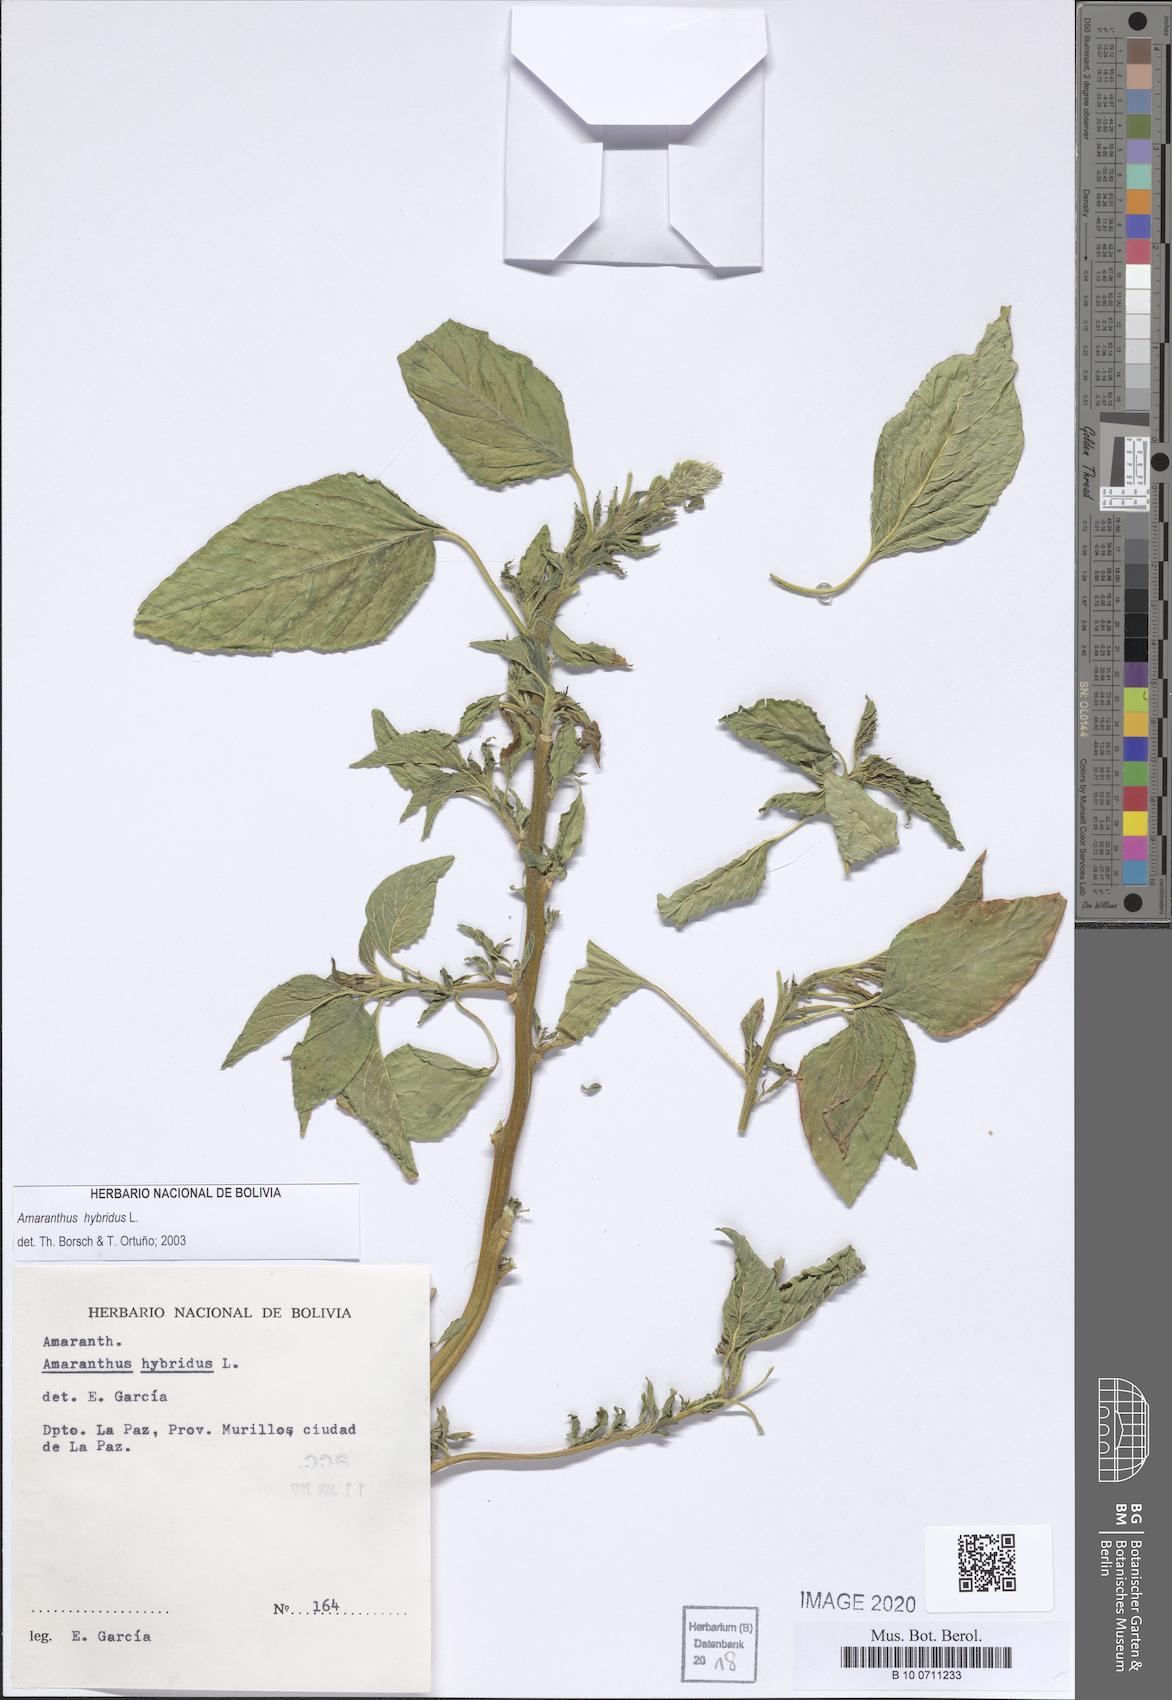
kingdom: Plantae
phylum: Tracheophyta
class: Magnoliopsida
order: Caryophyllales
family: Amaranthaceae
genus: Amaranthus
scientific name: Amaranthus hybridus
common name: Green amaranth
